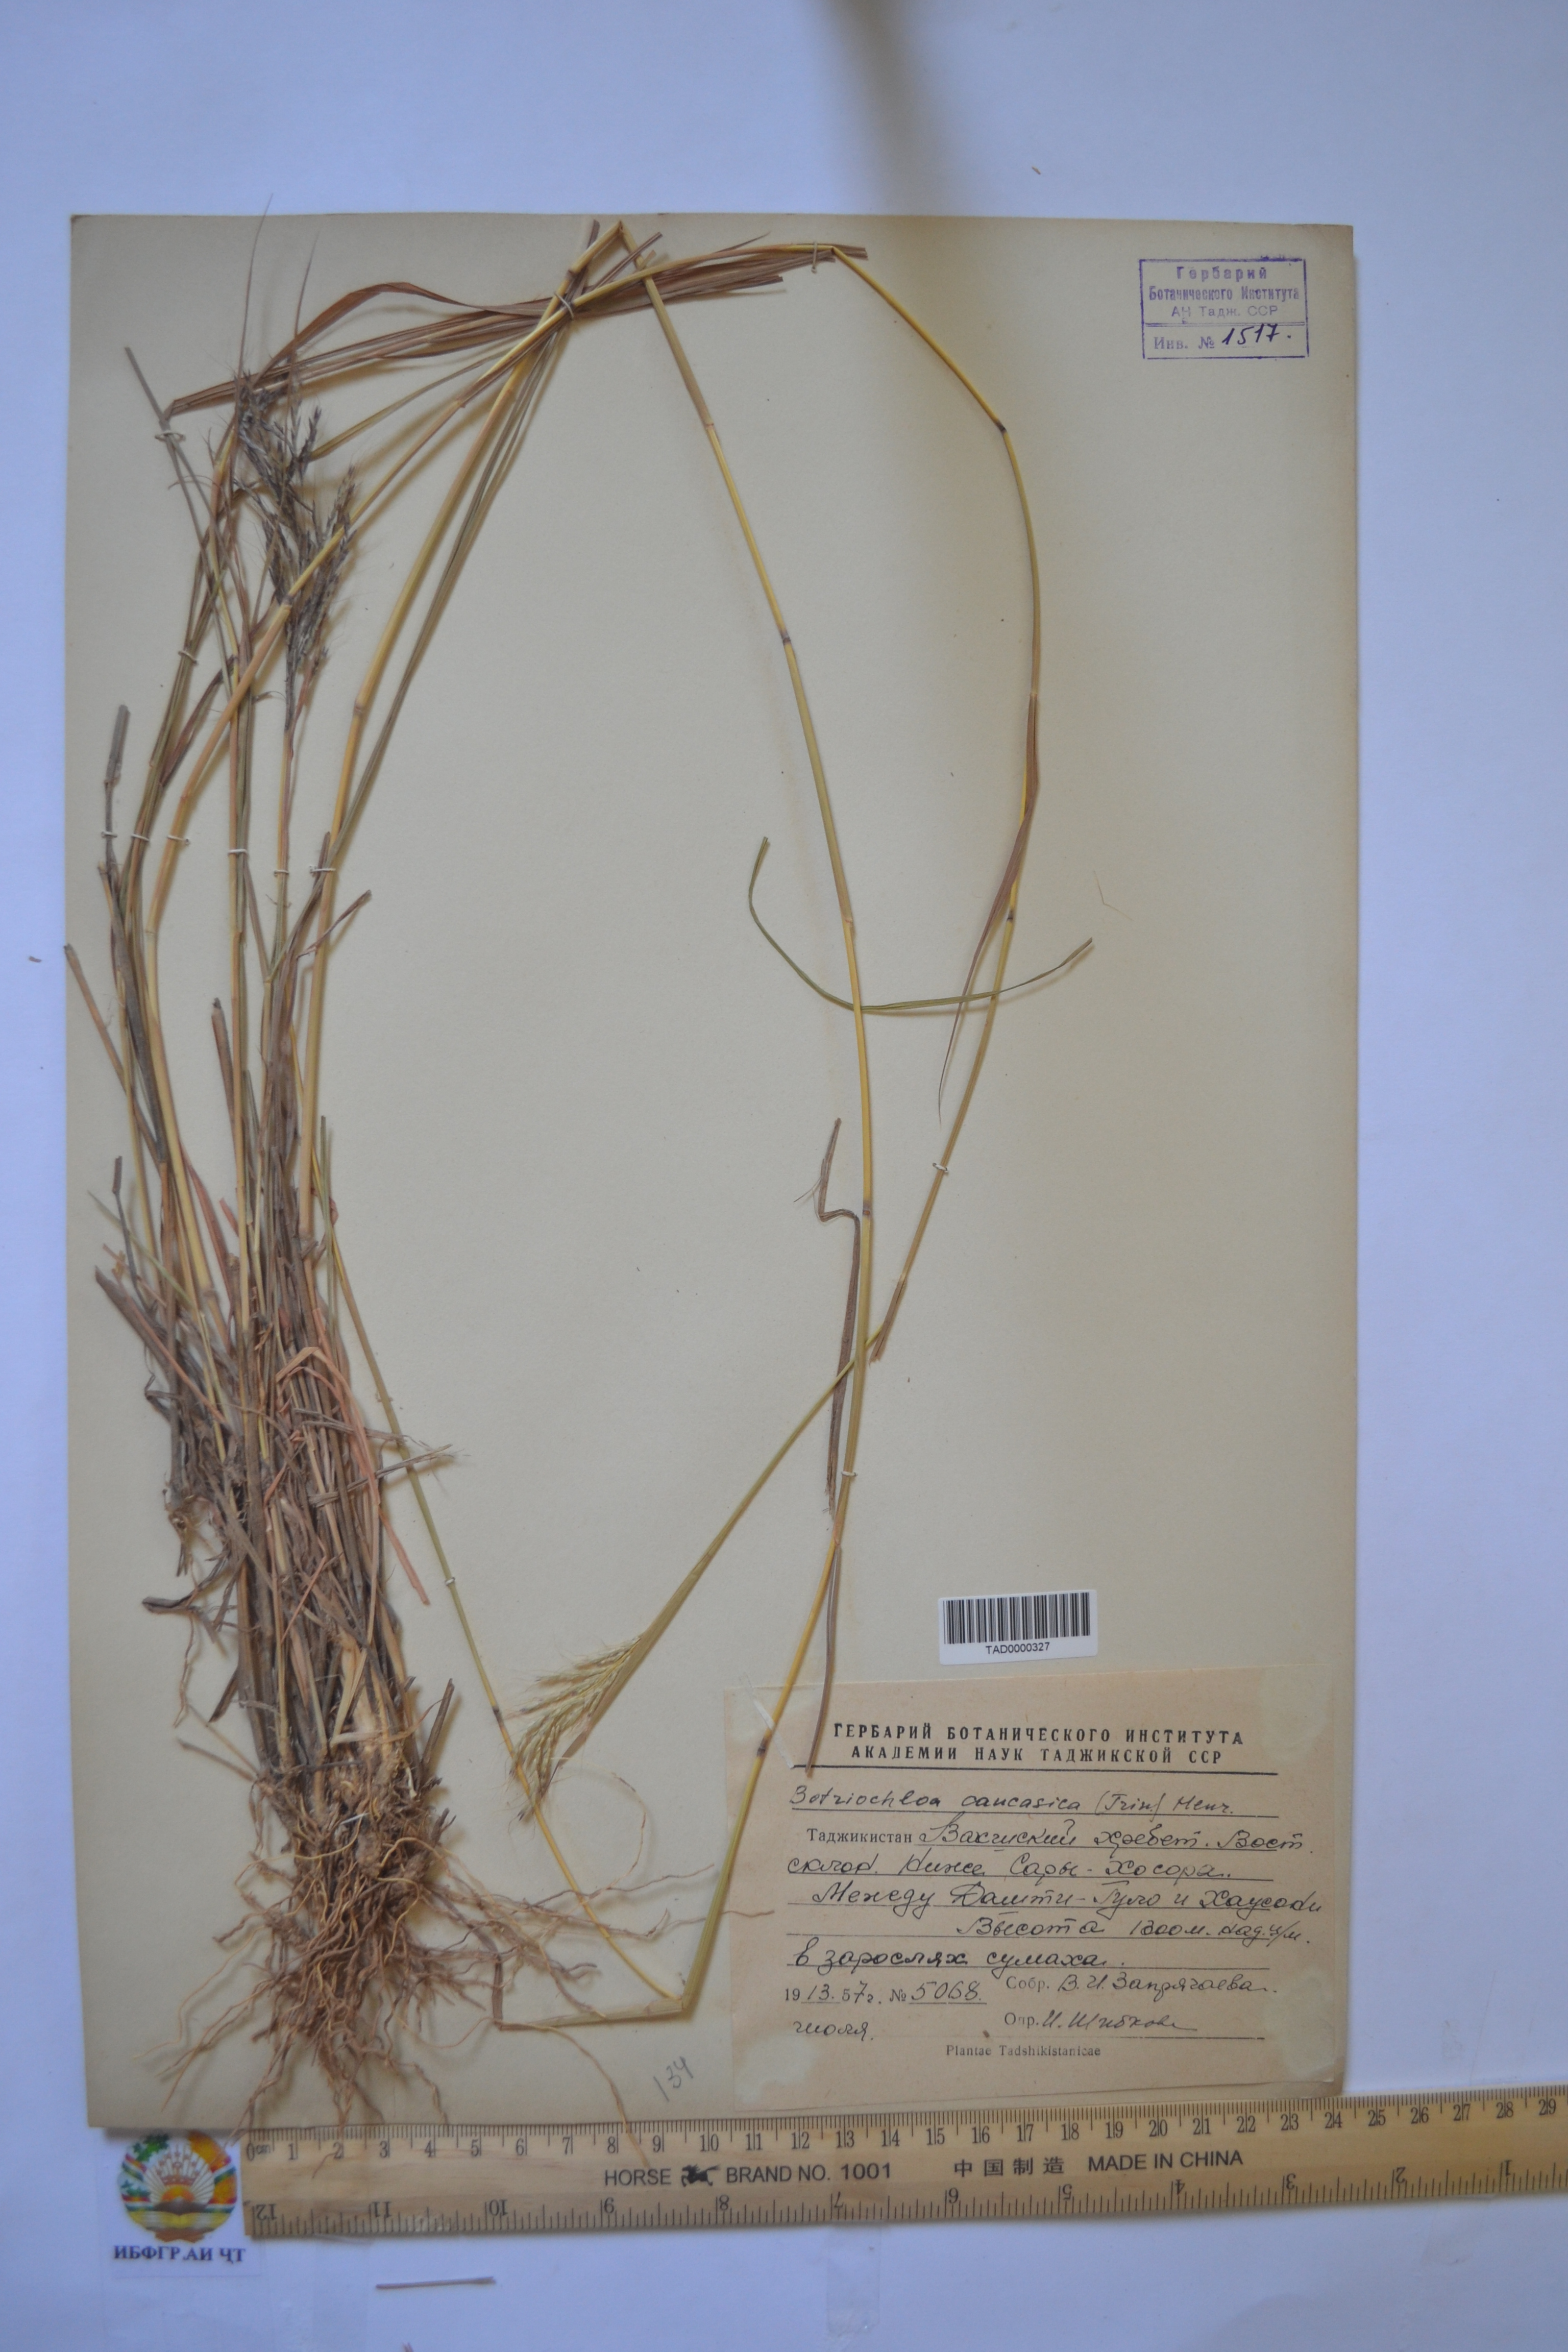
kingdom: Plantae
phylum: Tracheophyta
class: Liliopsida
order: Poales
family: Poaceae
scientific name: Poaceae
